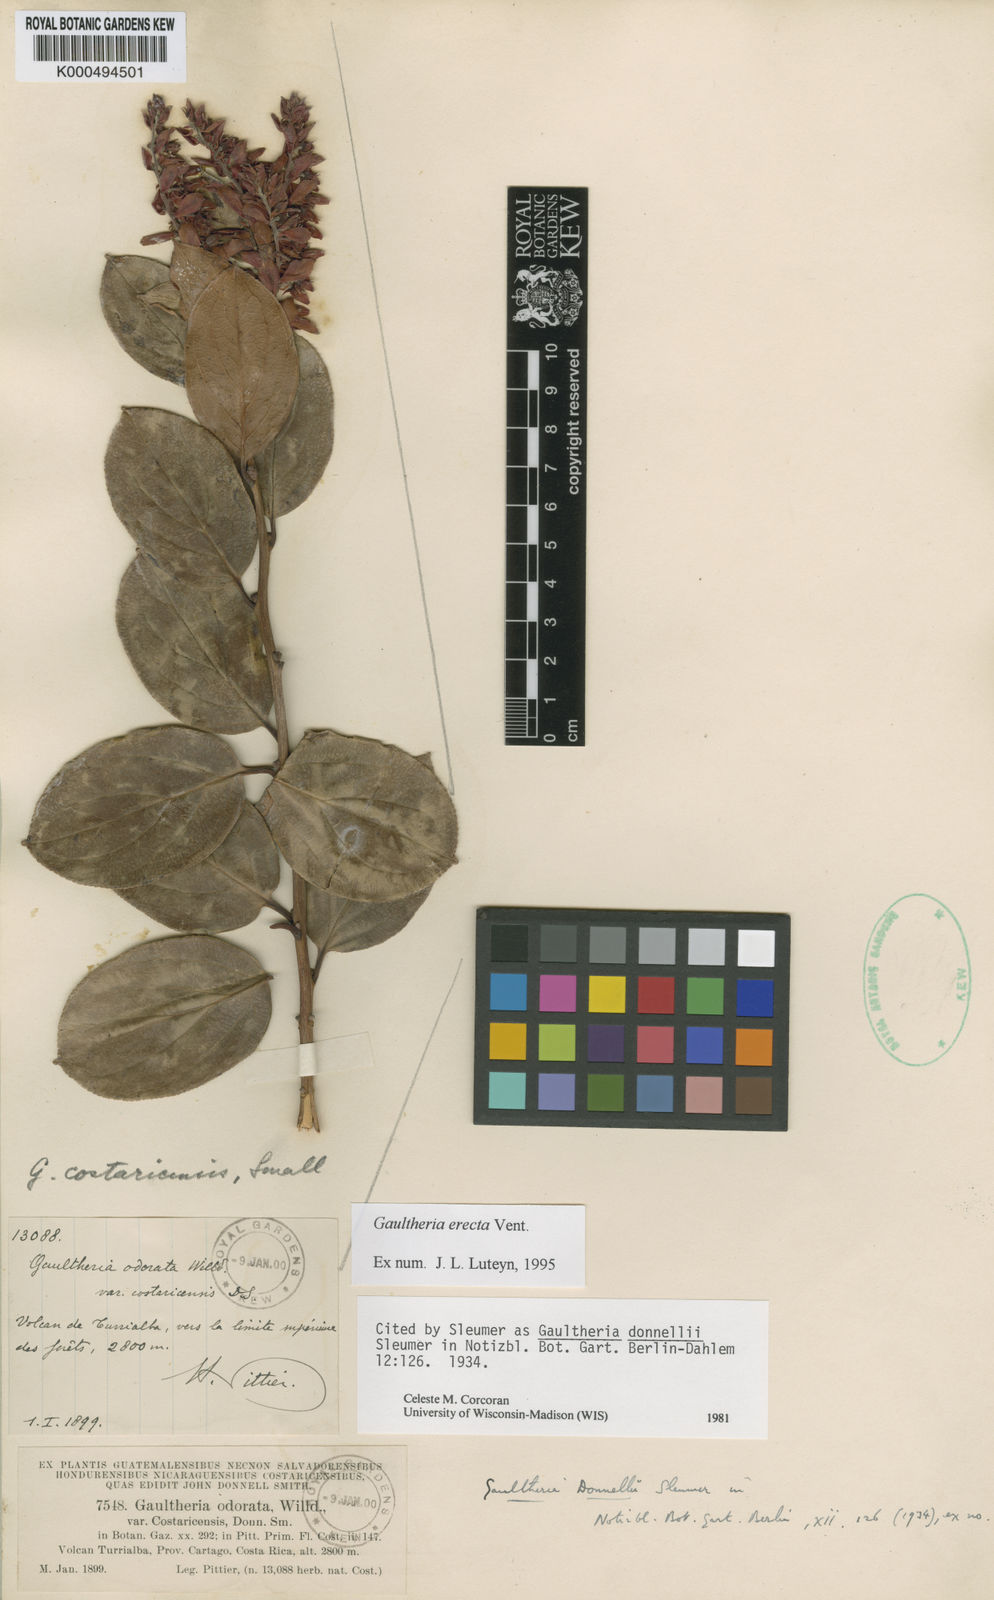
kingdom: Plantae
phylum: Tracheophyta
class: Magnoliopsida
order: Ericales
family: Ericaceae
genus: Gaultheria
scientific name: Gaultheria erecta
